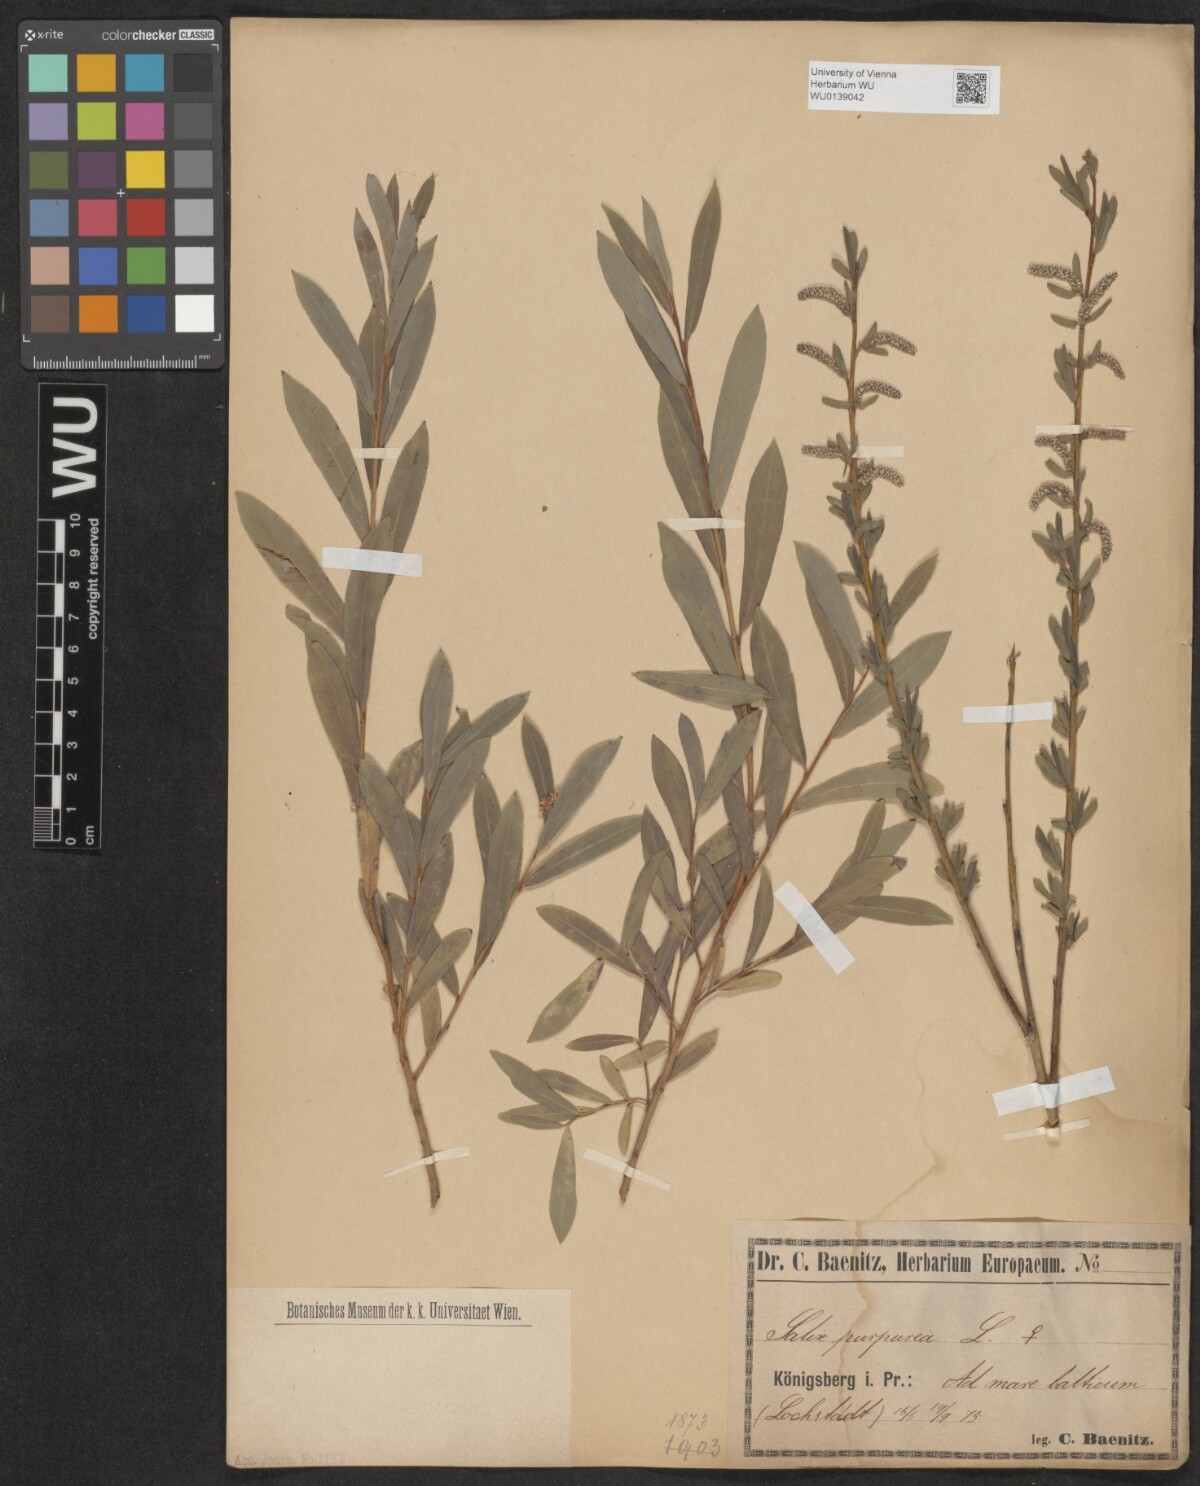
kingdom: Plantae
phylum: Tracheophyta
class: Magnoliopsida
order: Malpighiales
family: Salicaceae
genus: Salix
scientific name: Salix purpurea
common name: Purple willow
